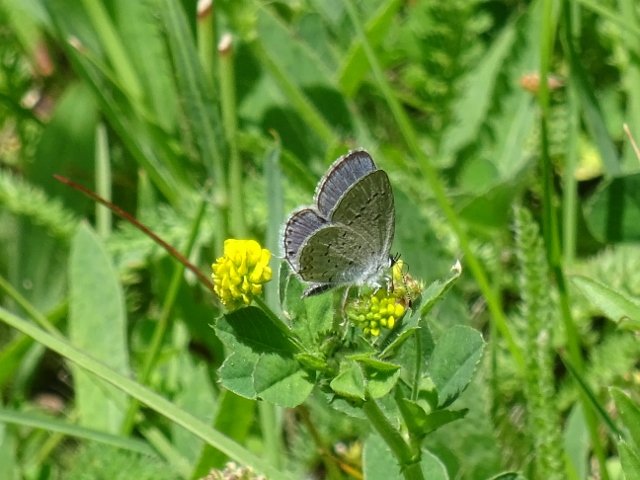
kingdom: Animalia
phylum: Arthropoda
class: Insecta
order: Lepidoptera
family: Lycaenidae
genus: Elkalyce
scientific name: Elkalyce comyntas
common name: Eastern Tailed-Blue
